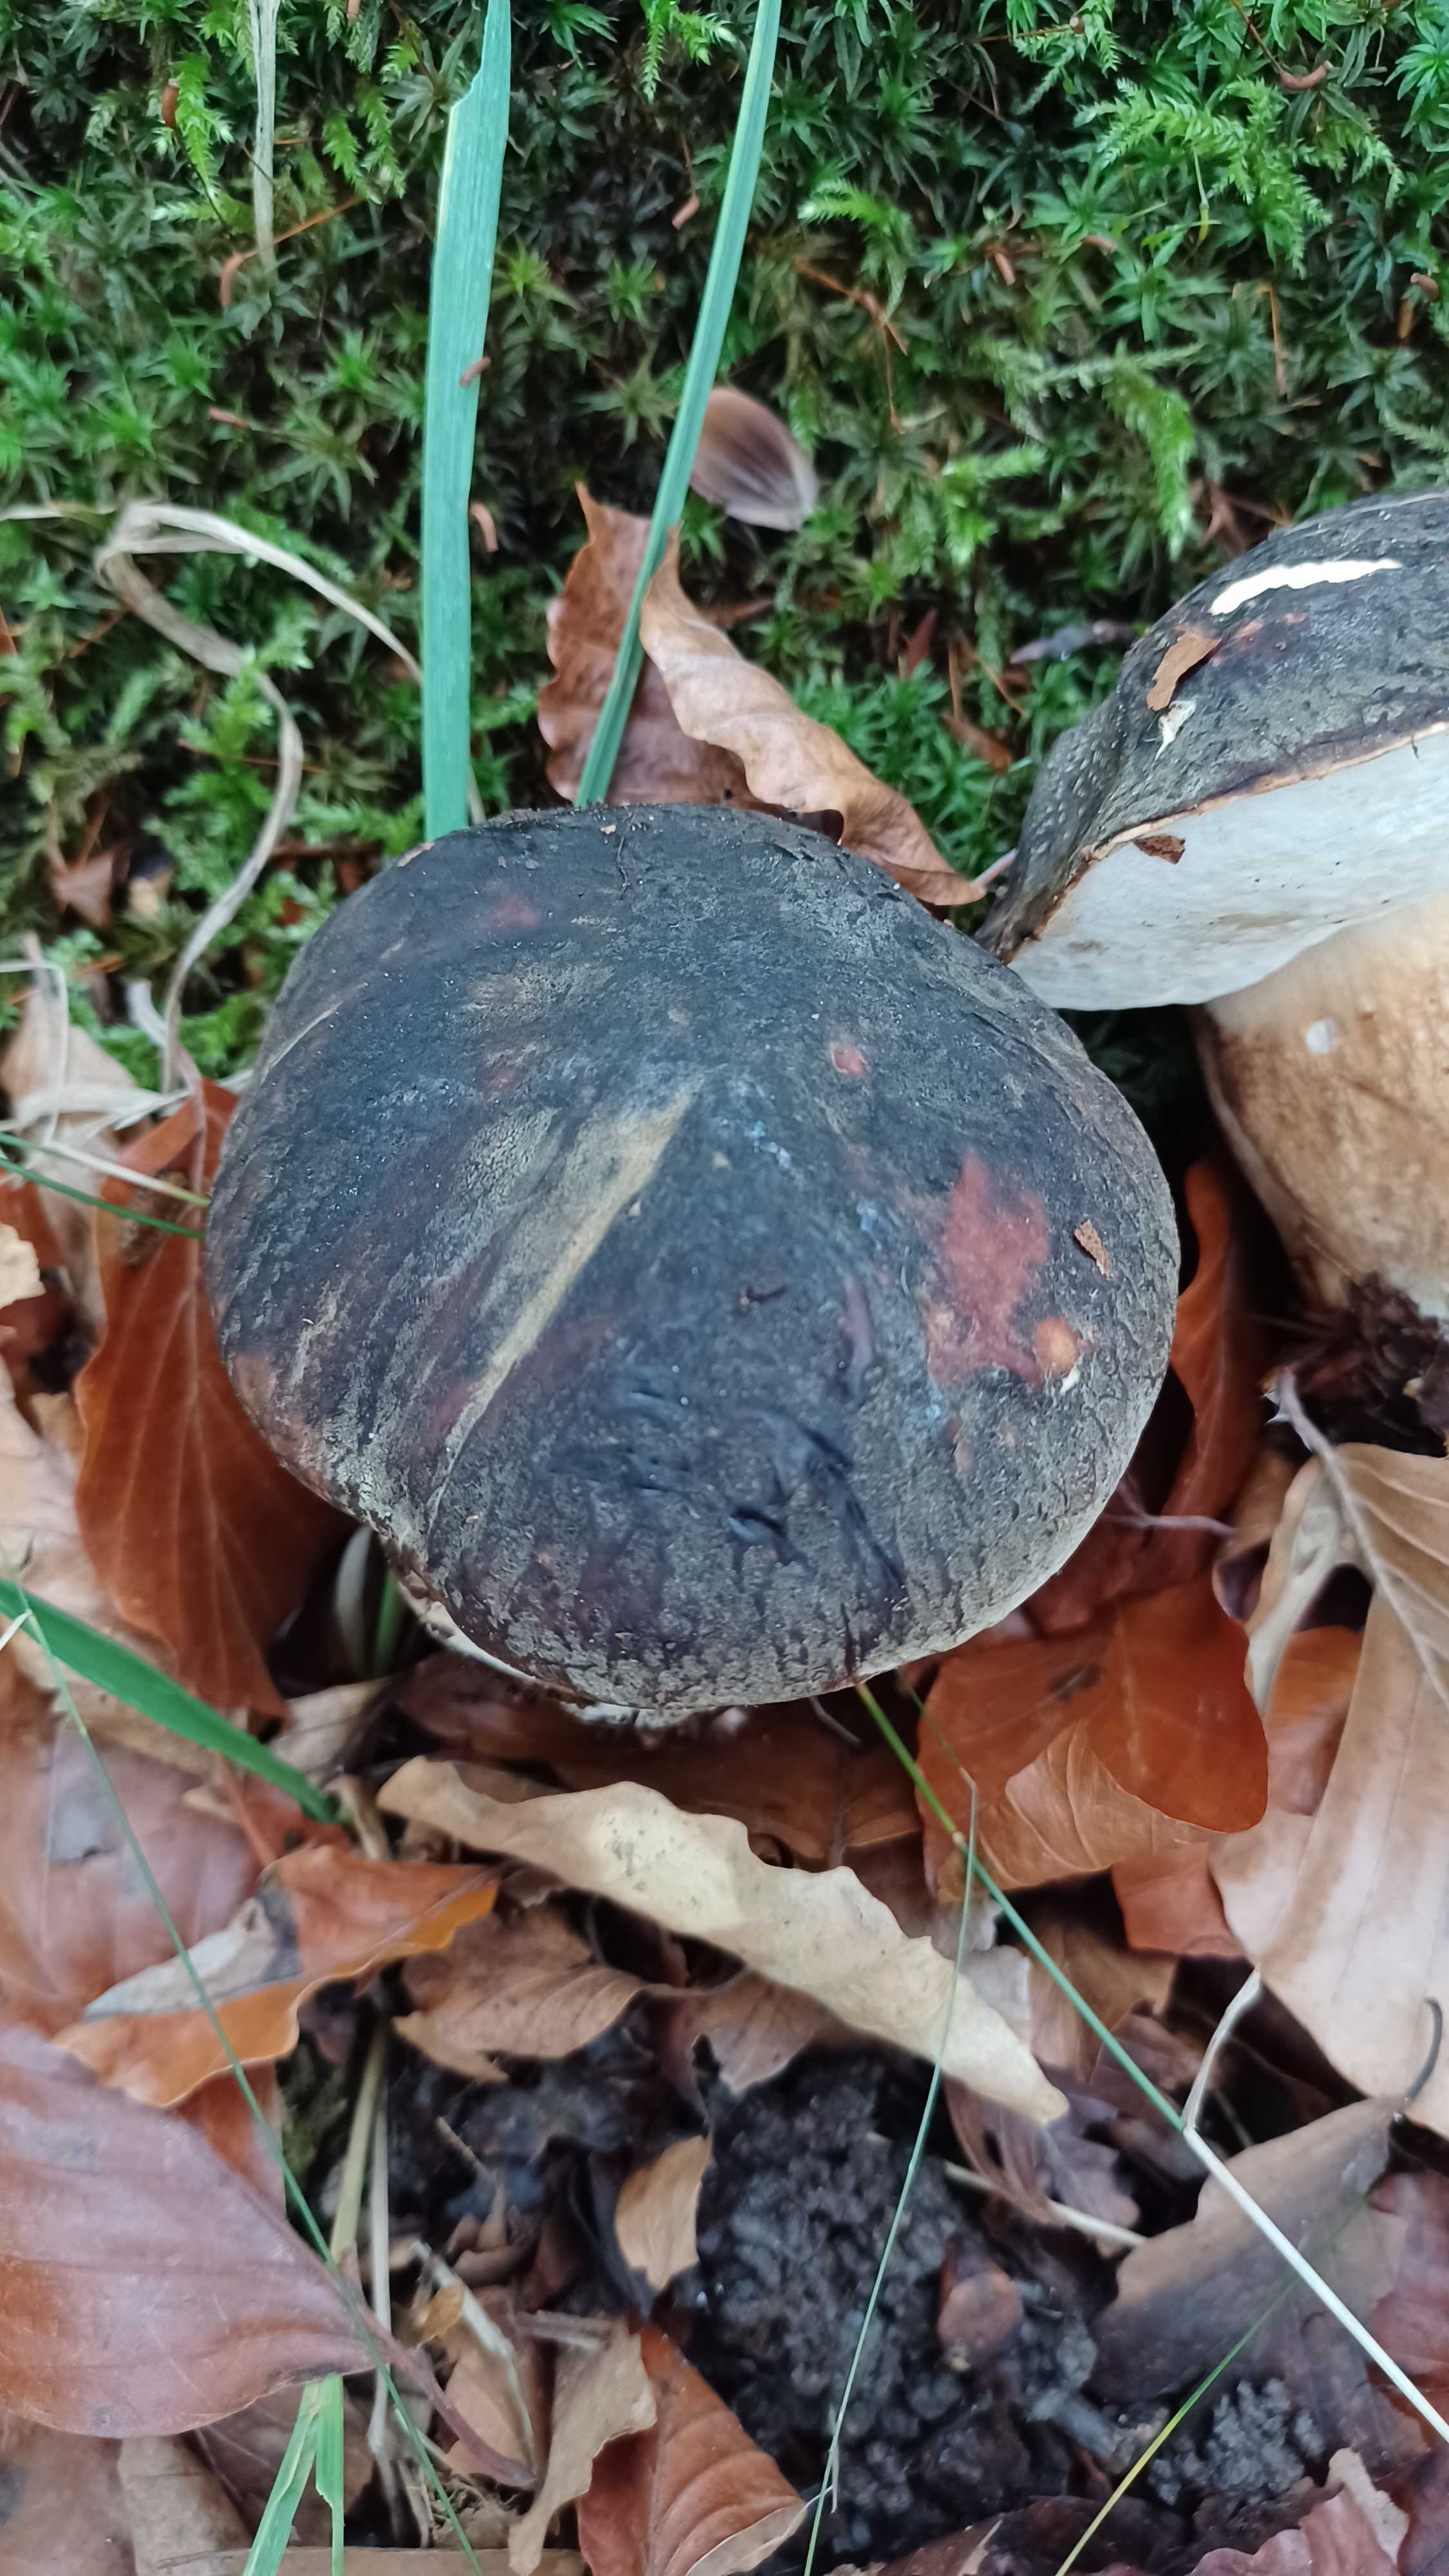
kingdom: Fungi
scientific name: Fungi
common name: bronze-rørhat
